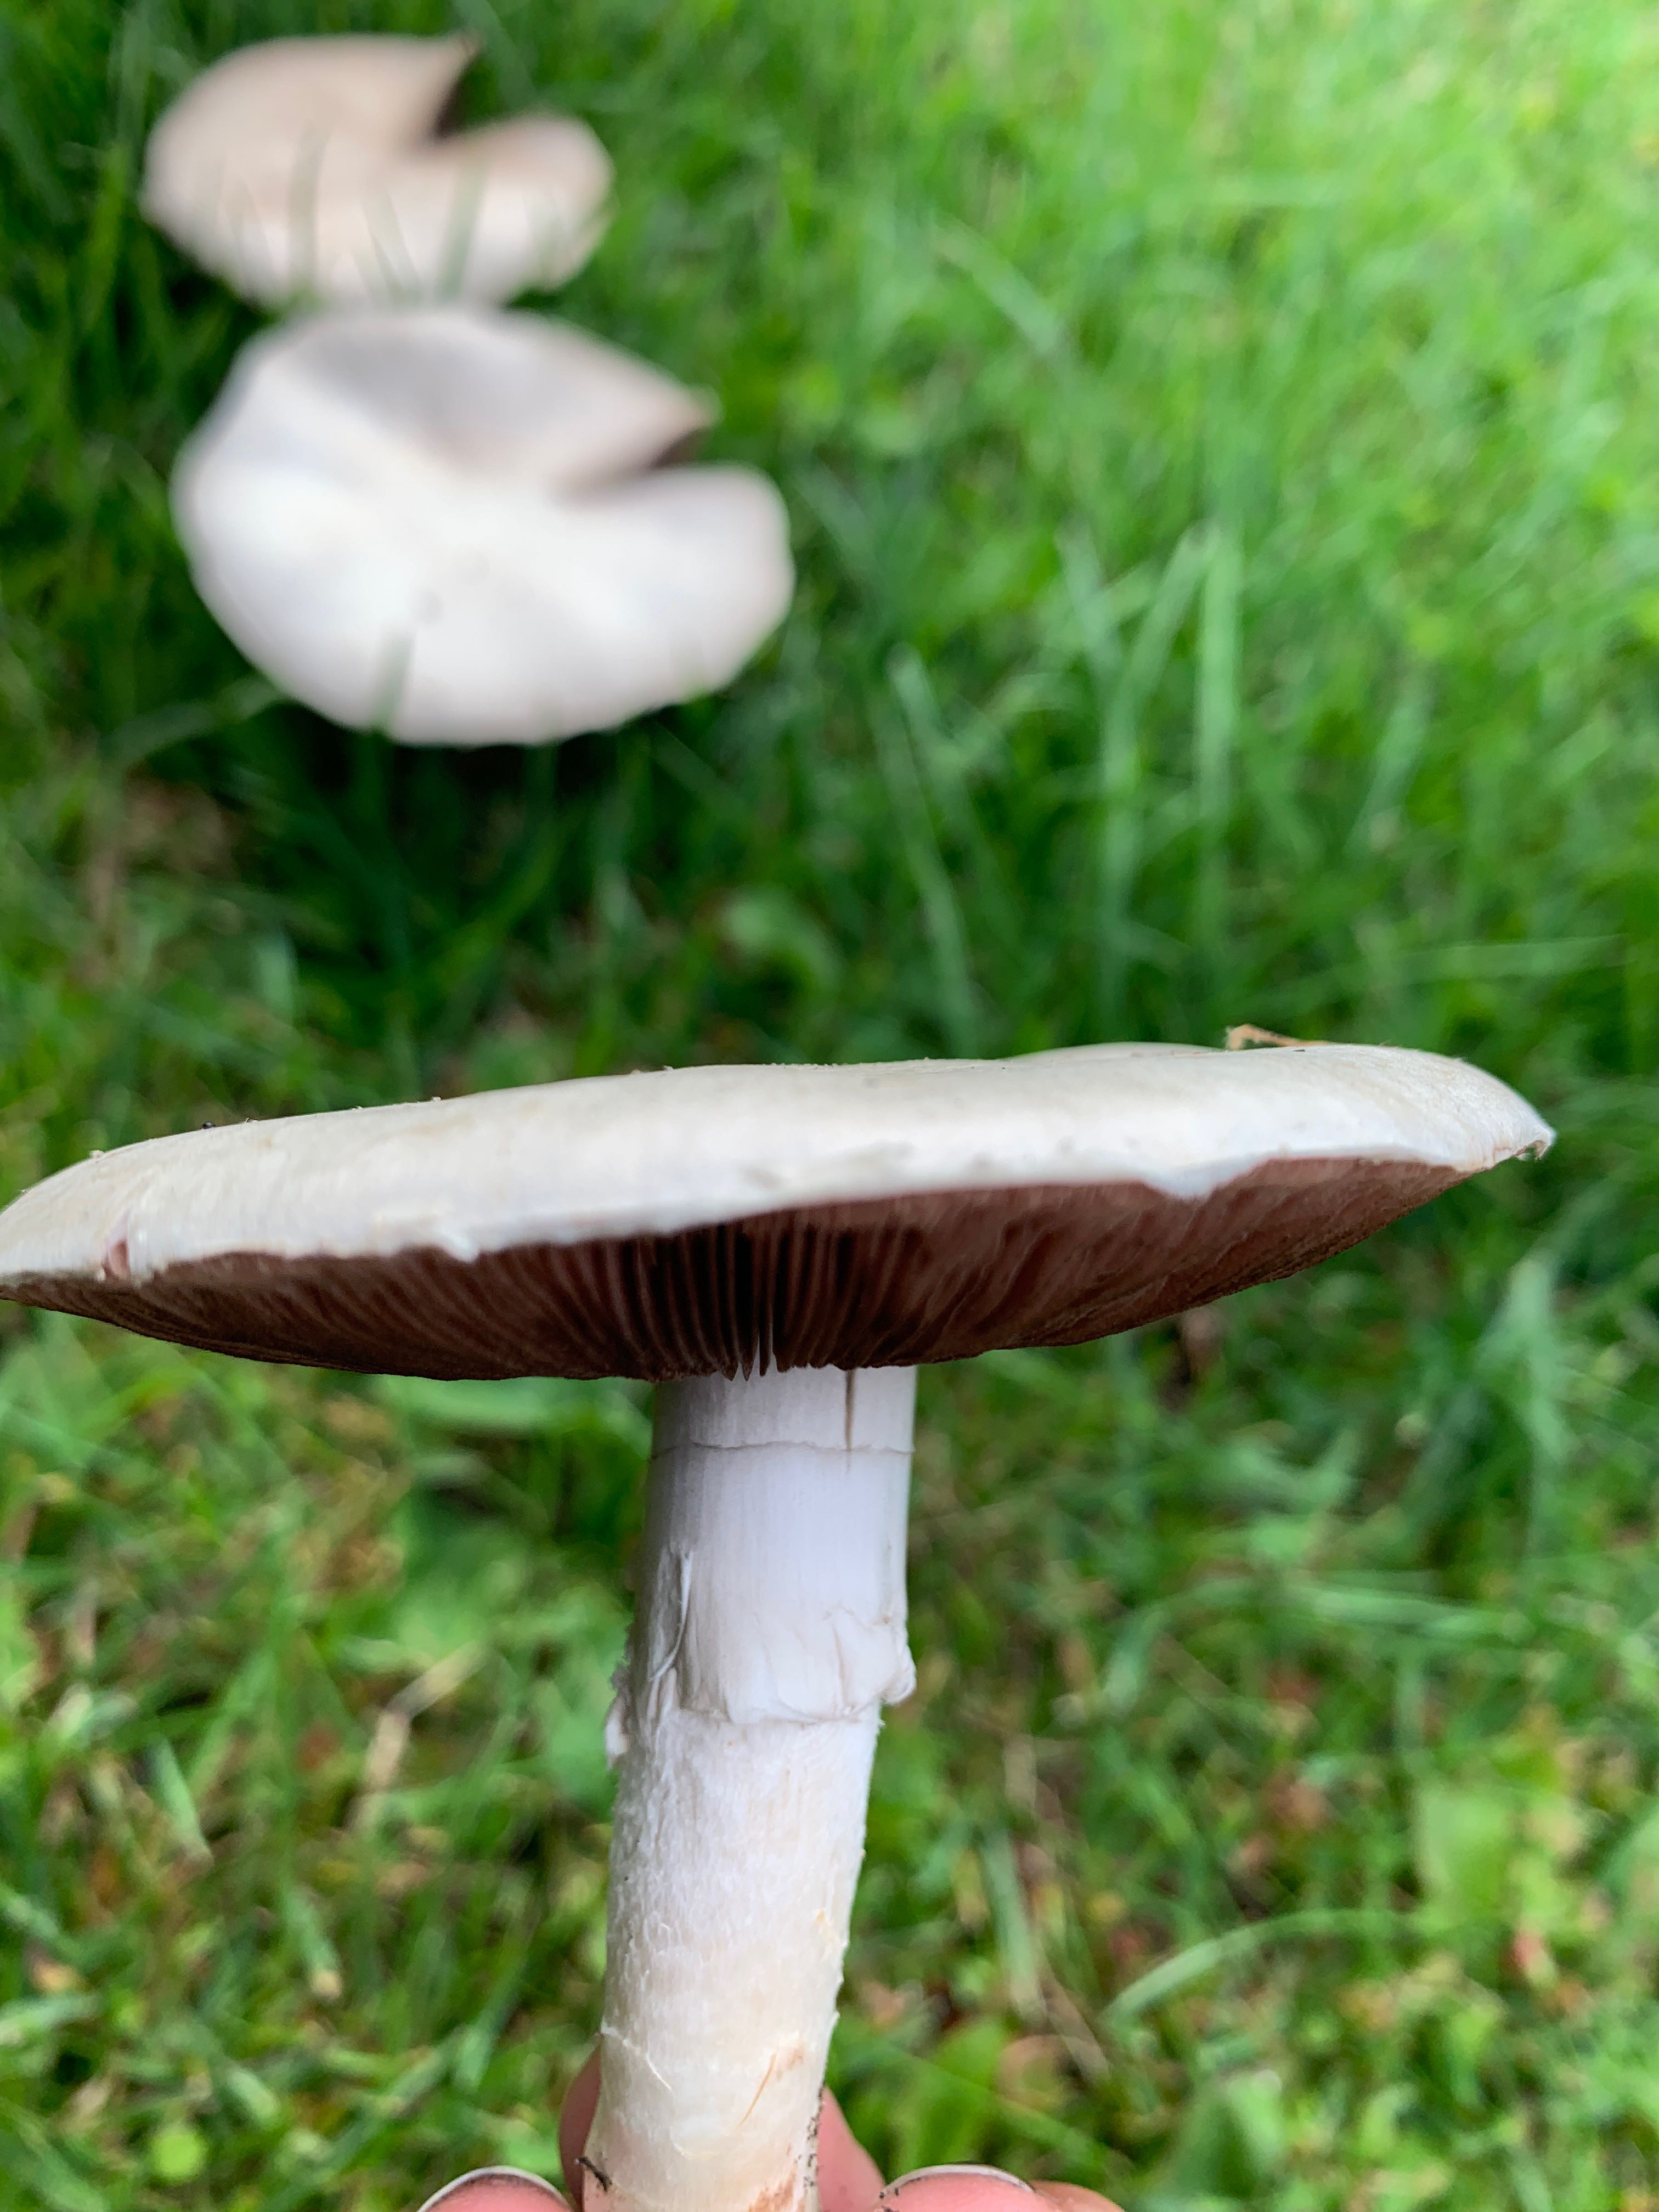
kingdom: Fungi
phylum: Basidiomycota
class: Agaricomycetes
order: Agaricales
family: Agaricaceae
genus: Agaricus
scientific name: Agaricus
